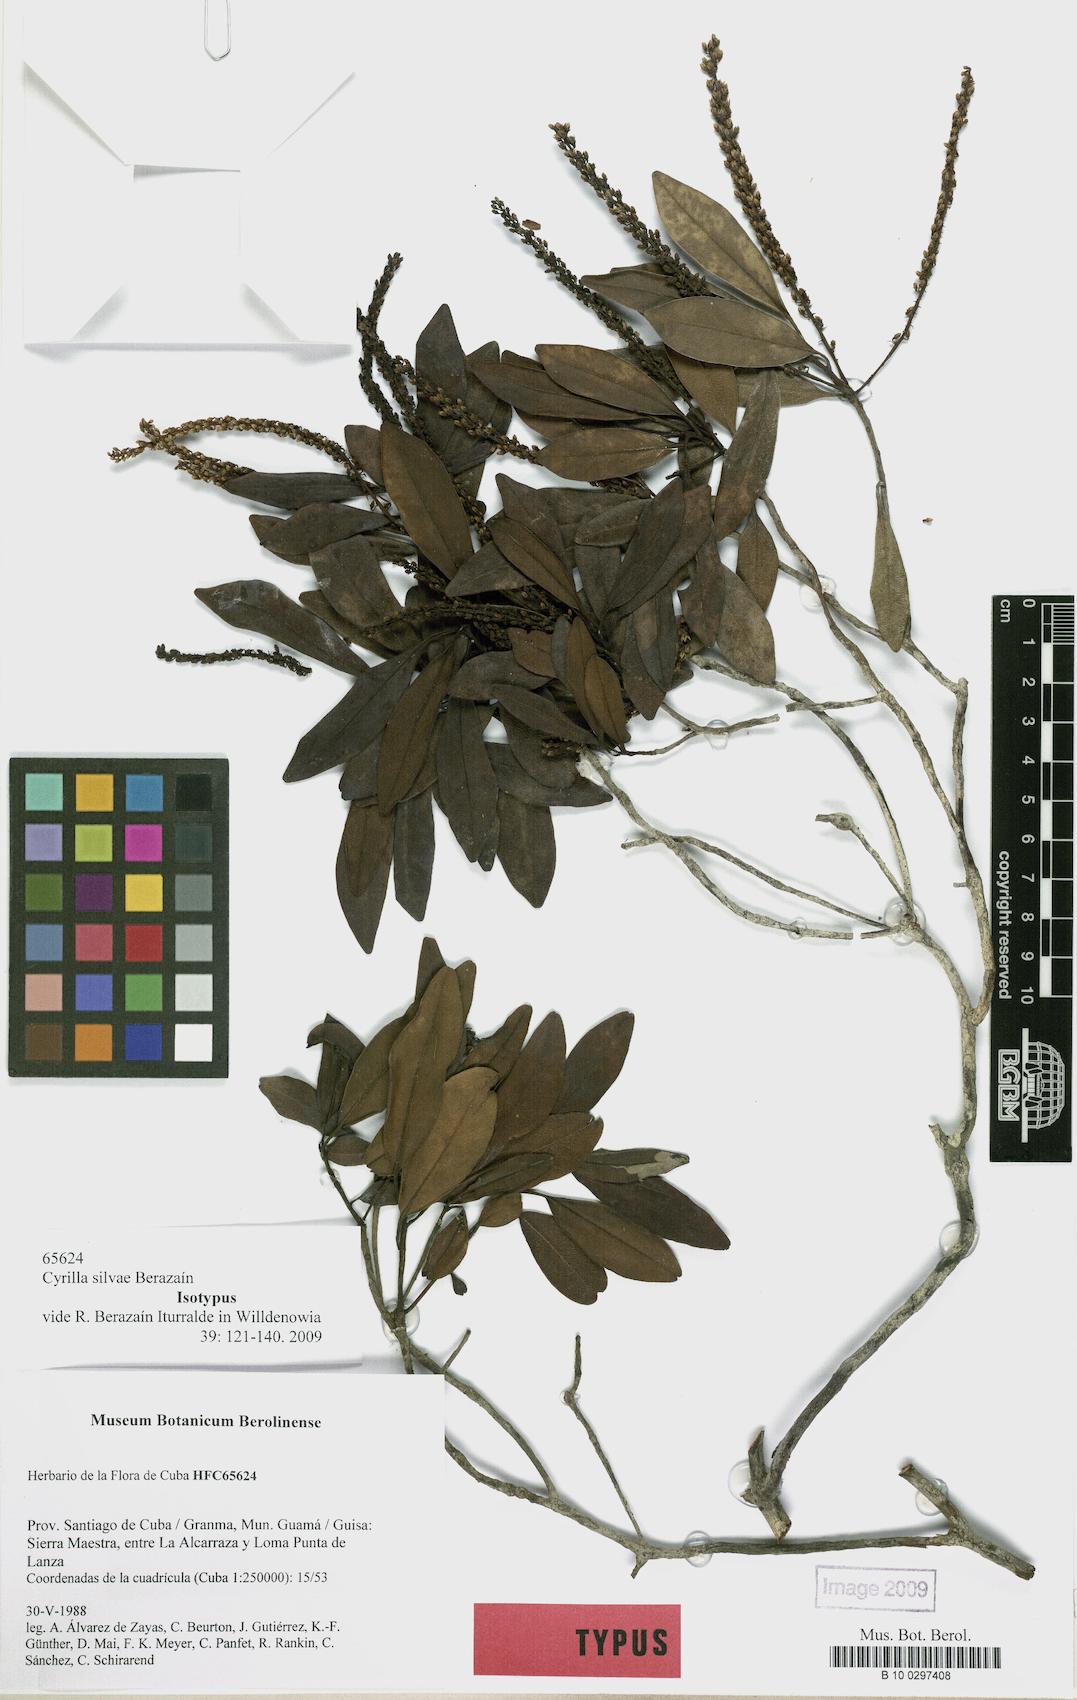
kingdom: Plantae
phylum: Tracheophyta
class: Magnoliopsida
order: Ericales
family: Cyrillaceae
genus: Cyrilla
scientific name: Cyrilla silvae
